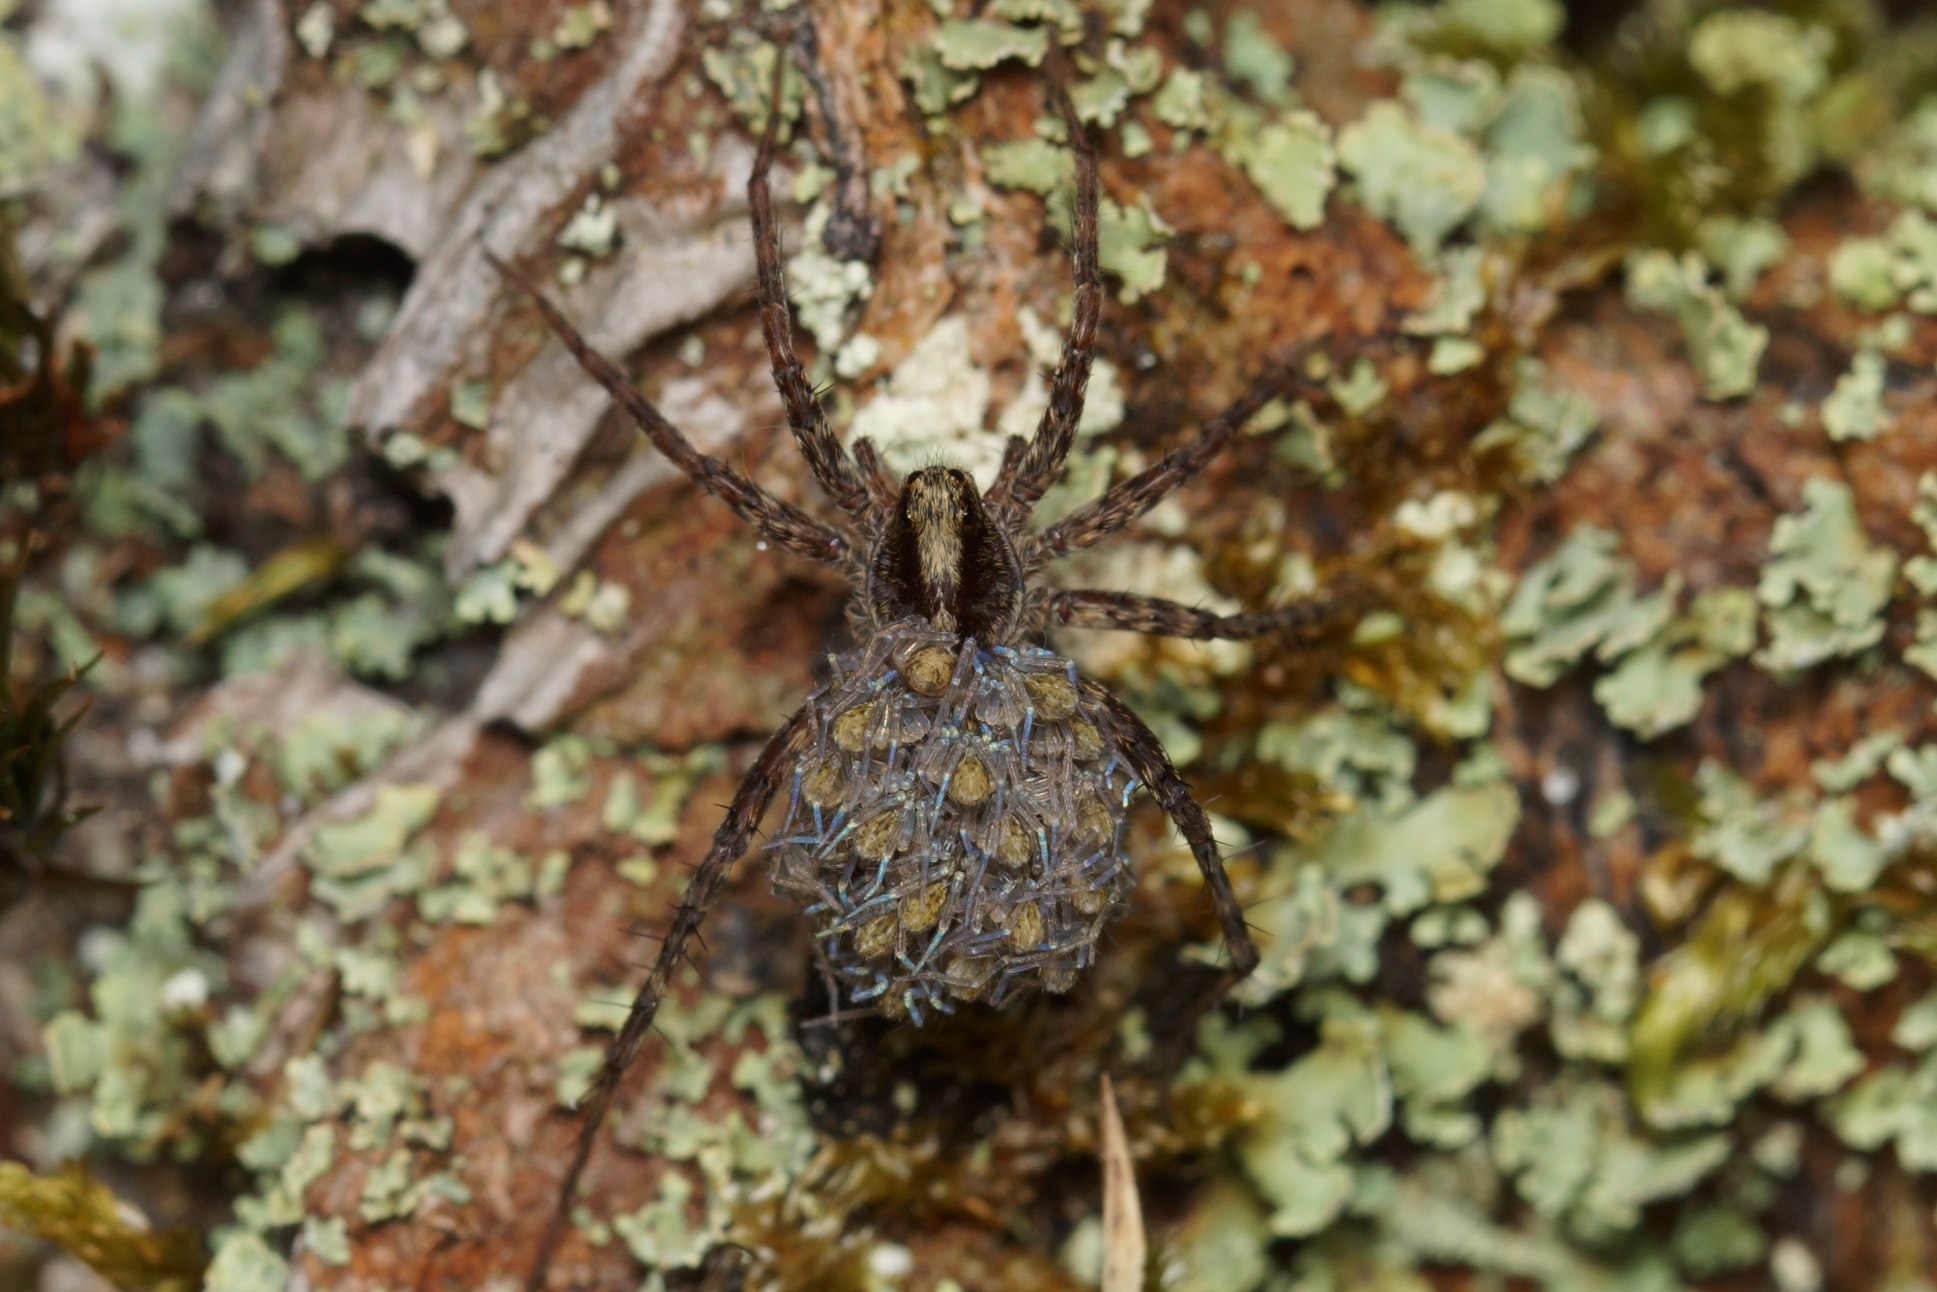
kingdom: Animalia
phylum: Arthropoda
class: Arachnida
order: Araneae
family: Lycosidae
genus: Pardosa
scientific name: Pardosa
